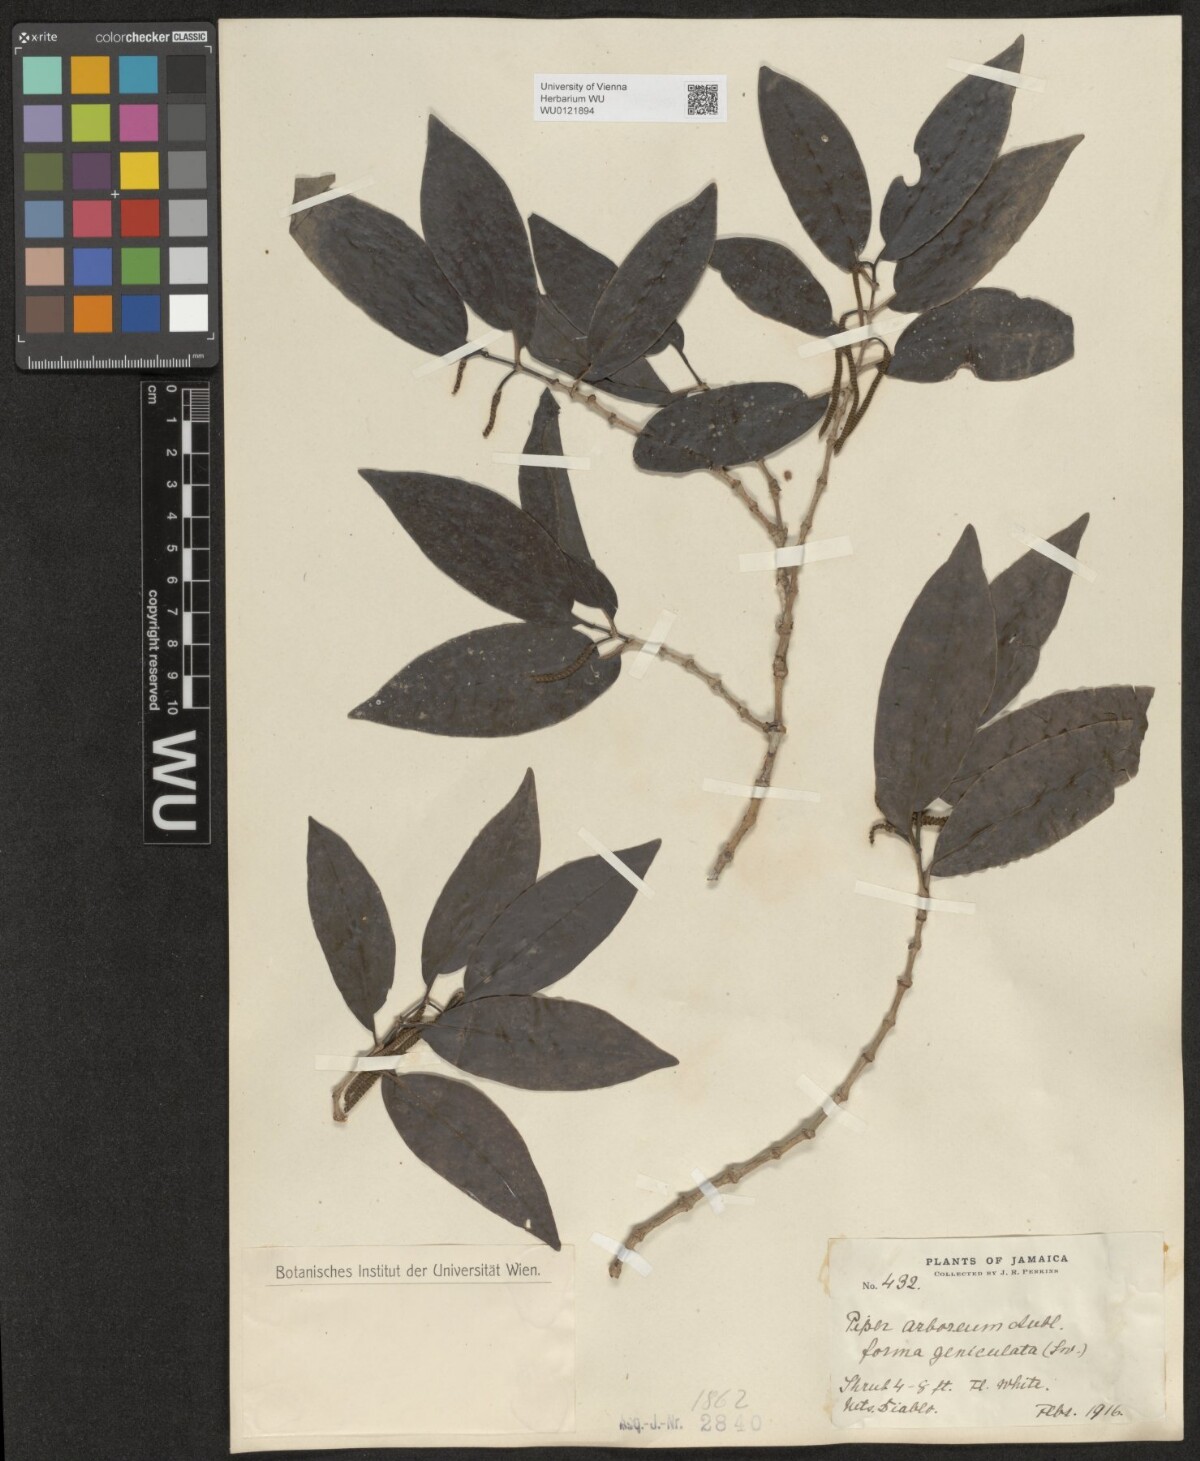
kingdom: Plantae
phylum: Tracheophyta
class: Magnoliopsida
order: Piperales
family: Piperaceae
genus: Piper
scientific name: Piper arboreum
